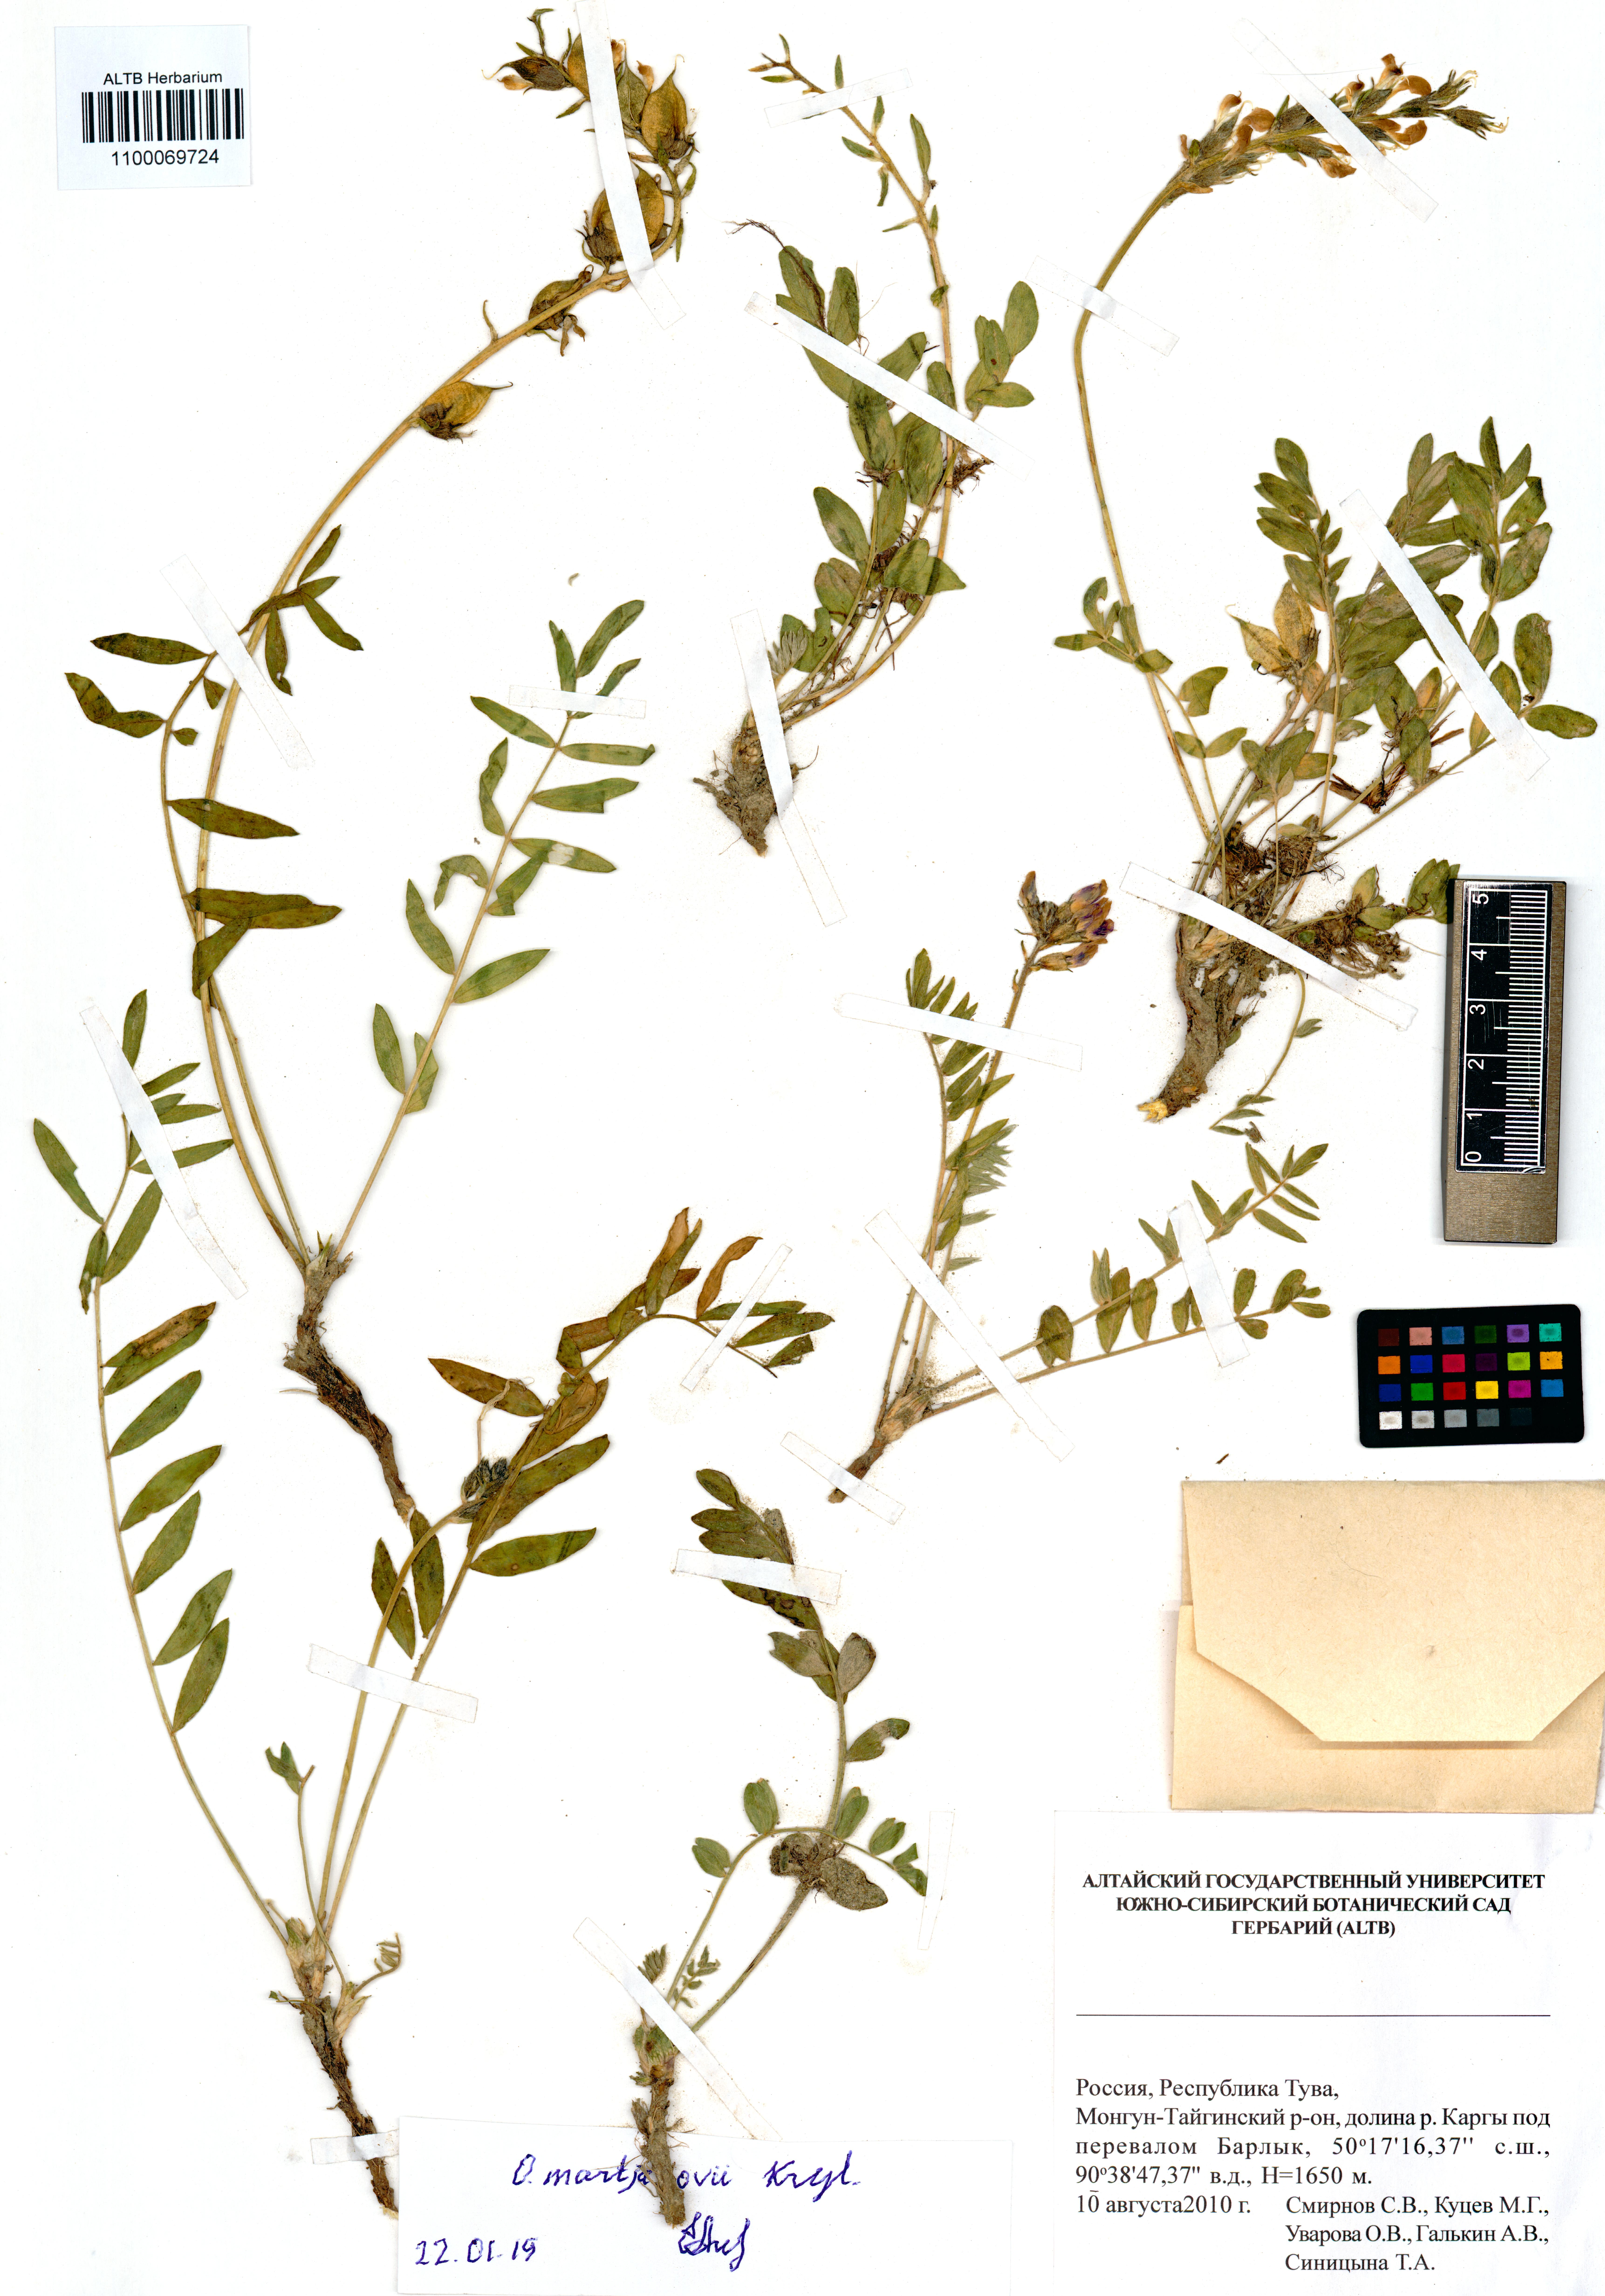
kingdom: Plantae
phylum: Tracheophyta
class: Magnoliopsida
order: Fabales
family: Fabaceae
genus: Oxytropis
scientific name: Oxytropis martjanovii
